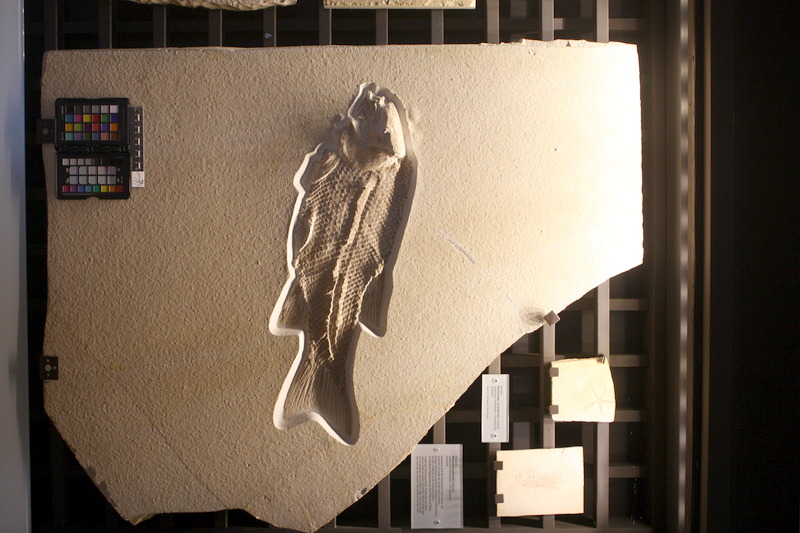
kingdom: Animalia
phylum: Chordata
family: Callipurbeckiidae
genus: Callipurbeckia
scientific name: Callipurbeckia notopterus
